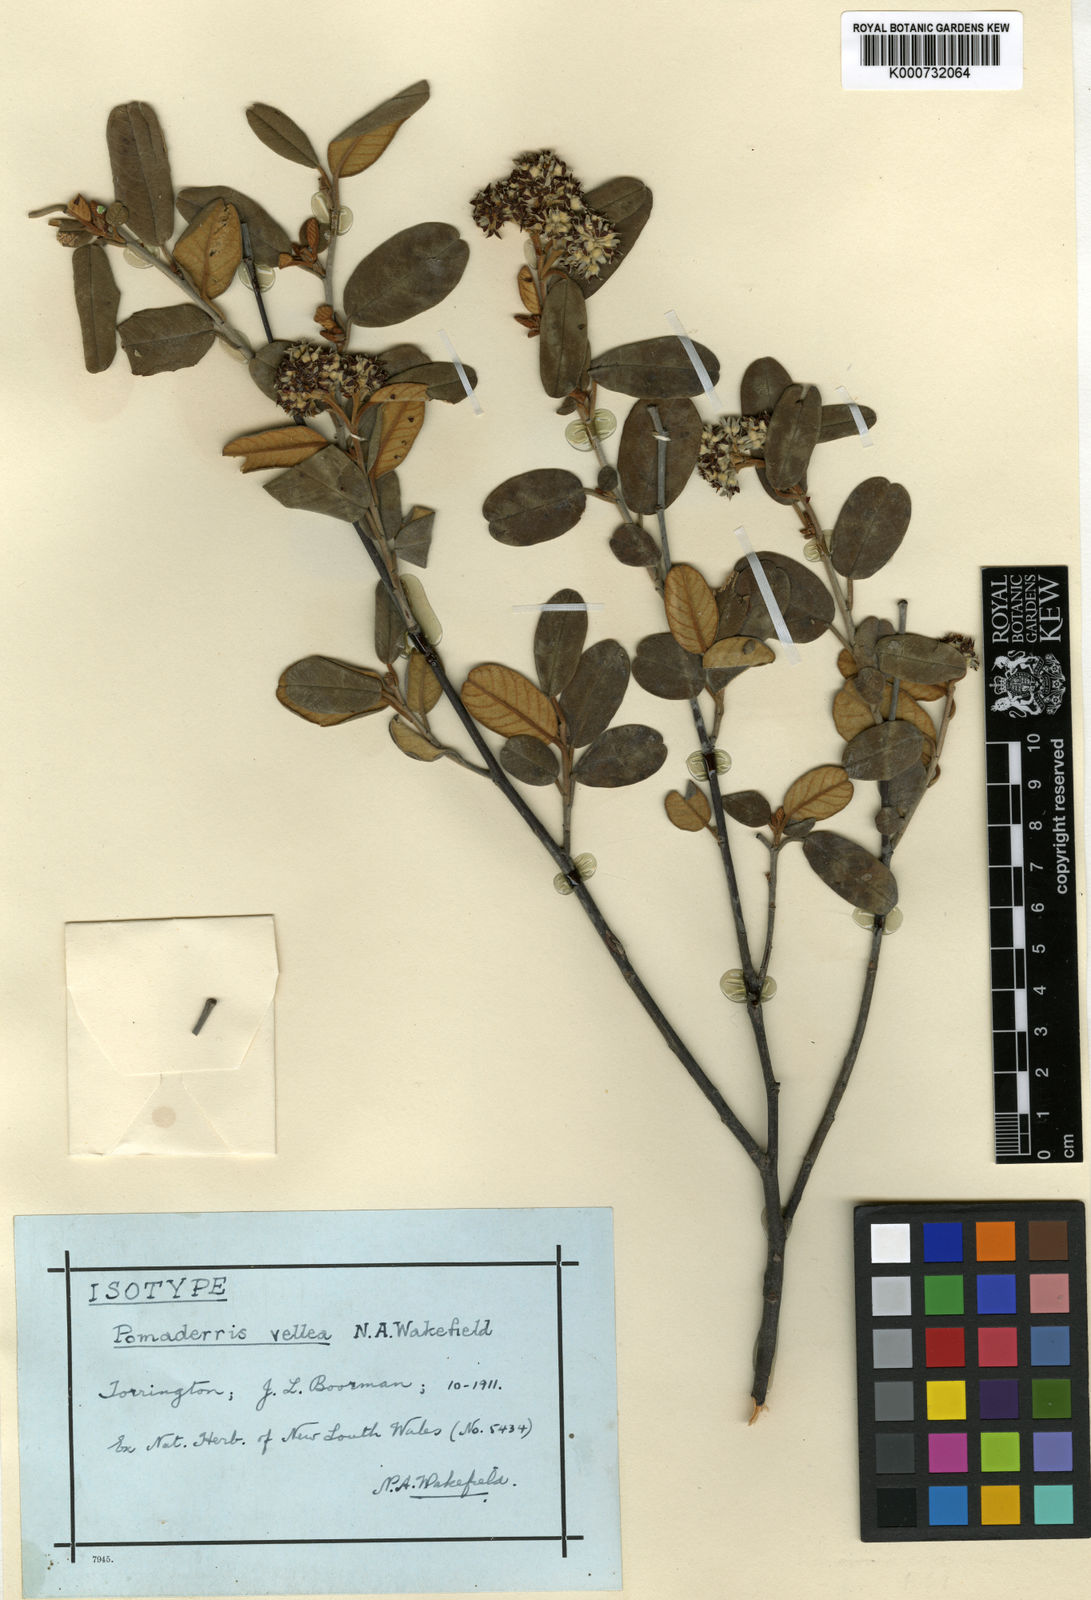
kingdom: Plantae
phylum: Tracheophyta
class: Magnoliopsida
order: Rosales
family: Rhamnaceae
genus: Pomaderris
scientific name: Pomaderris vellea
